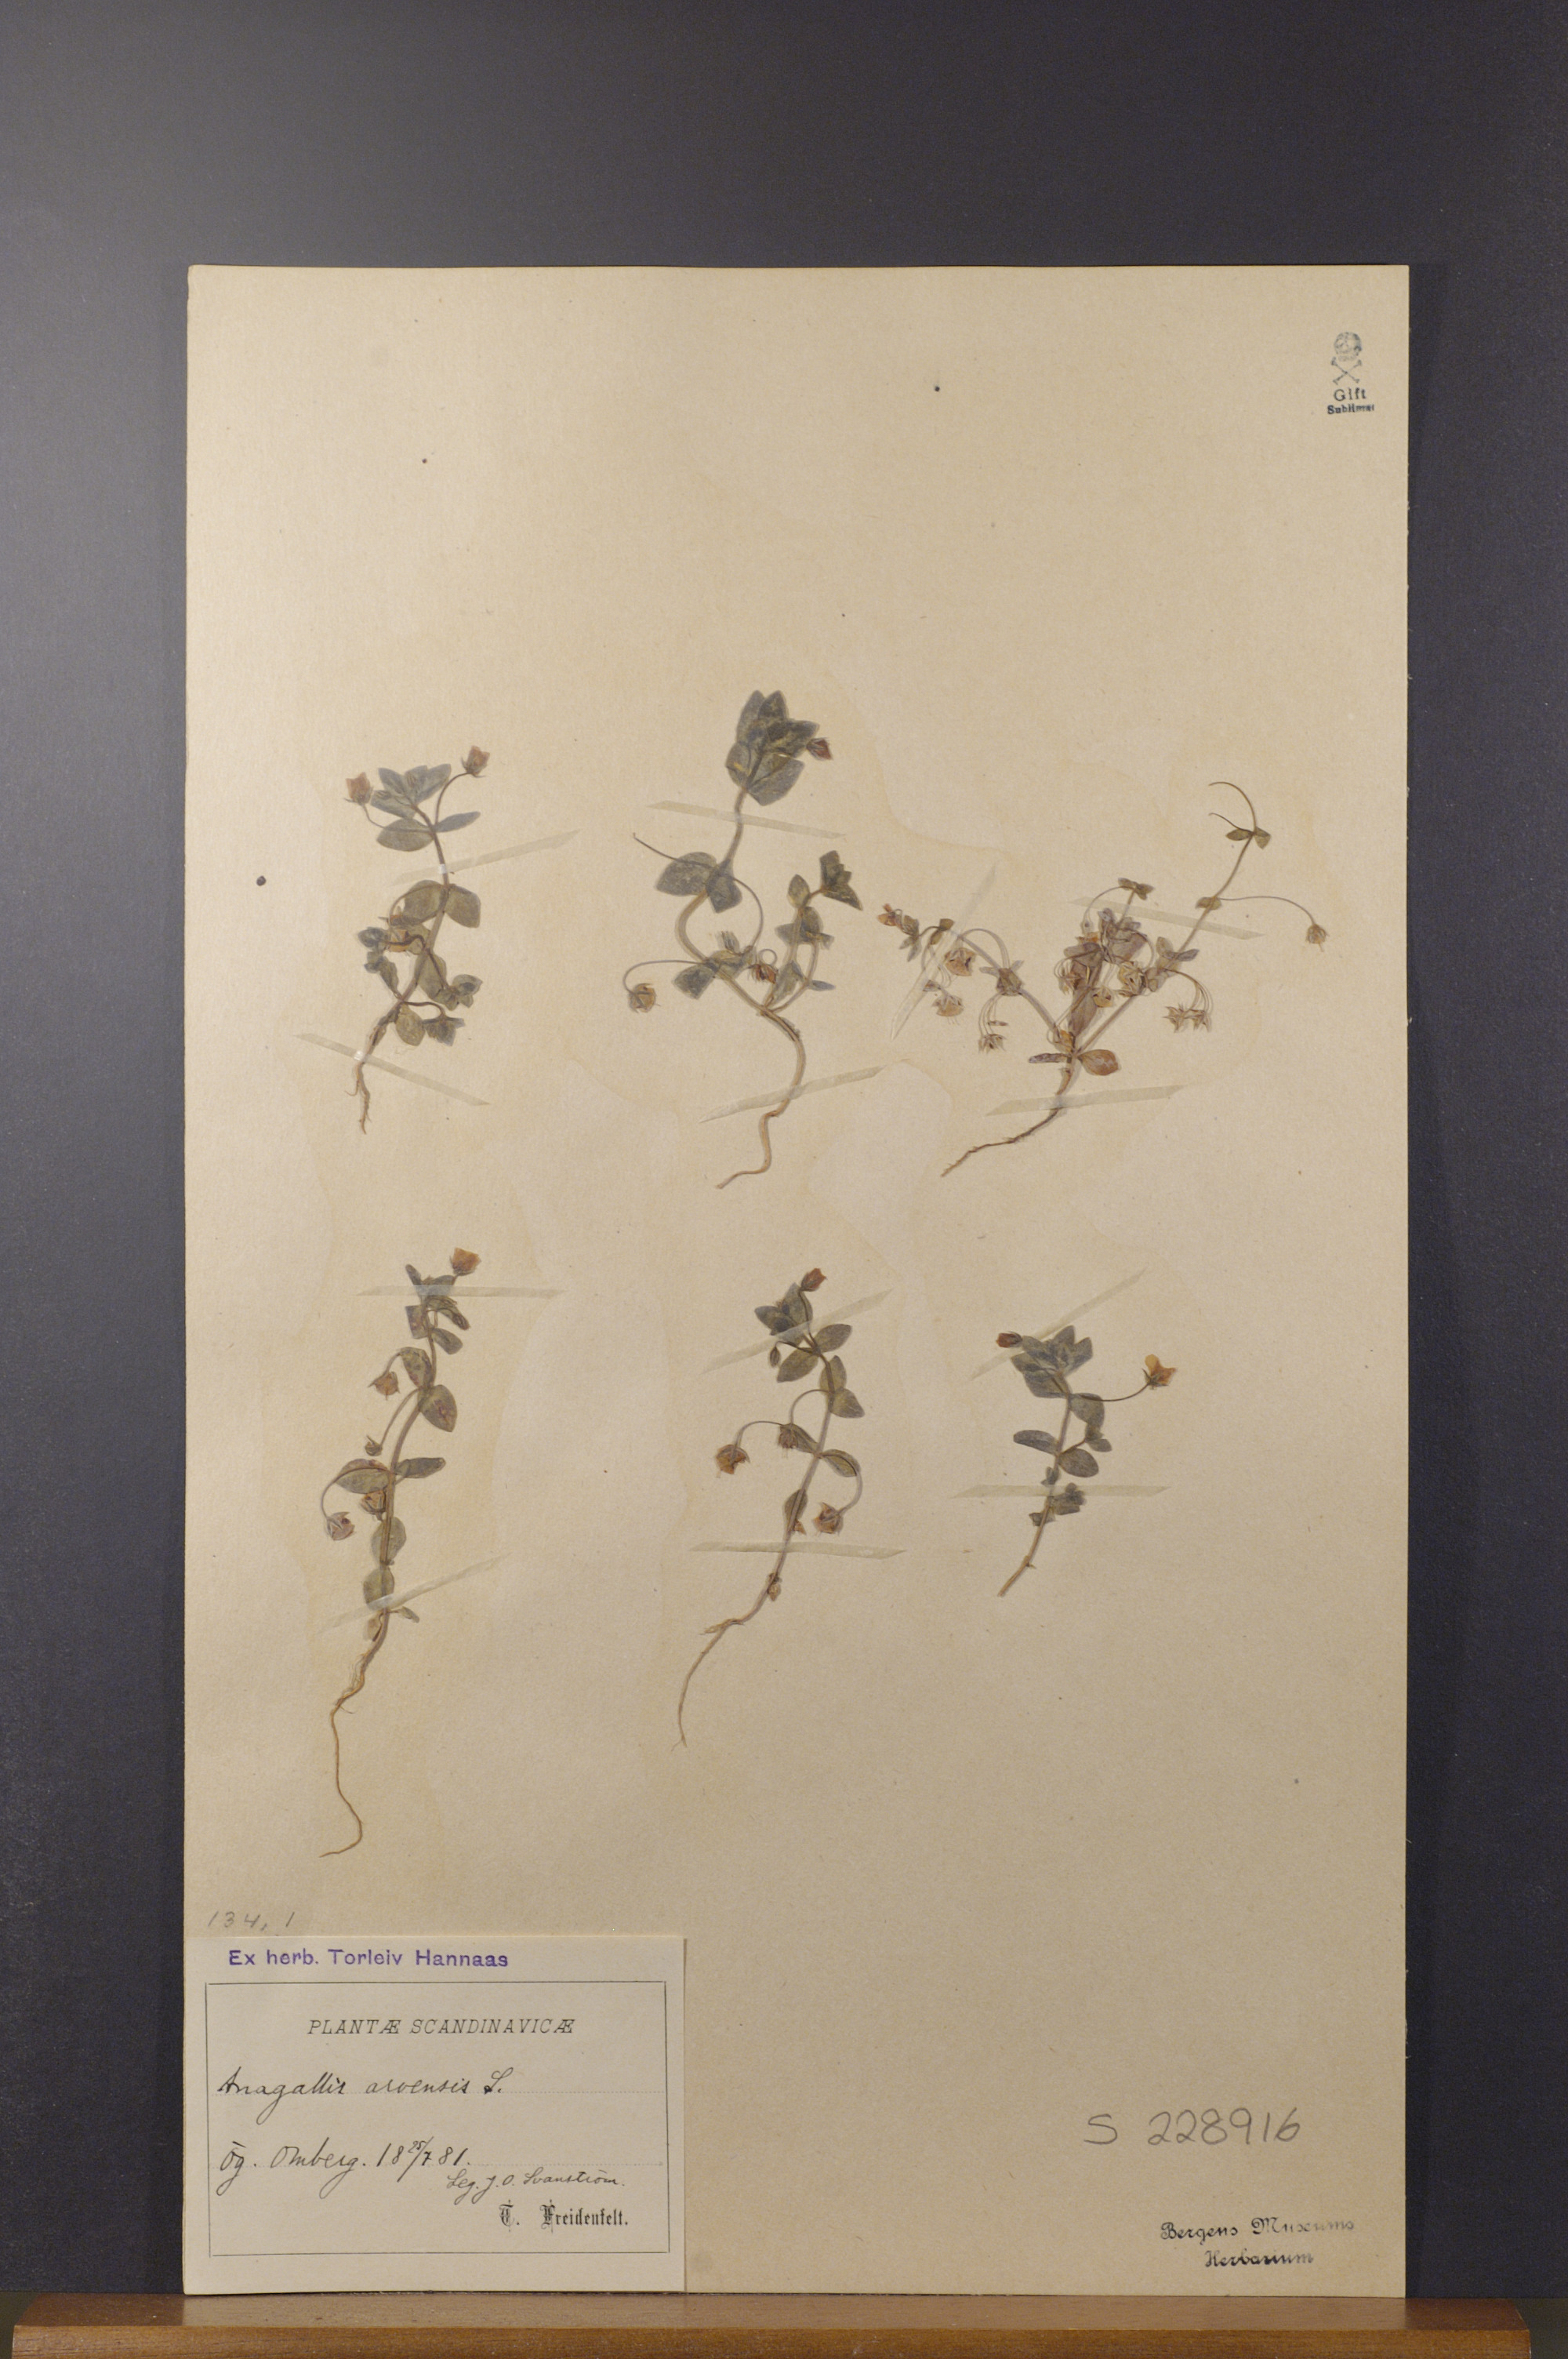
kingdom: Plantae
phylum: Tracheophyta
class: Magnoliopsida
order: Ericales
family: Primulaceae
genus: Lysimachia
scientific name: Lysimachia arvensis
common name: Scarlet pimpernel
